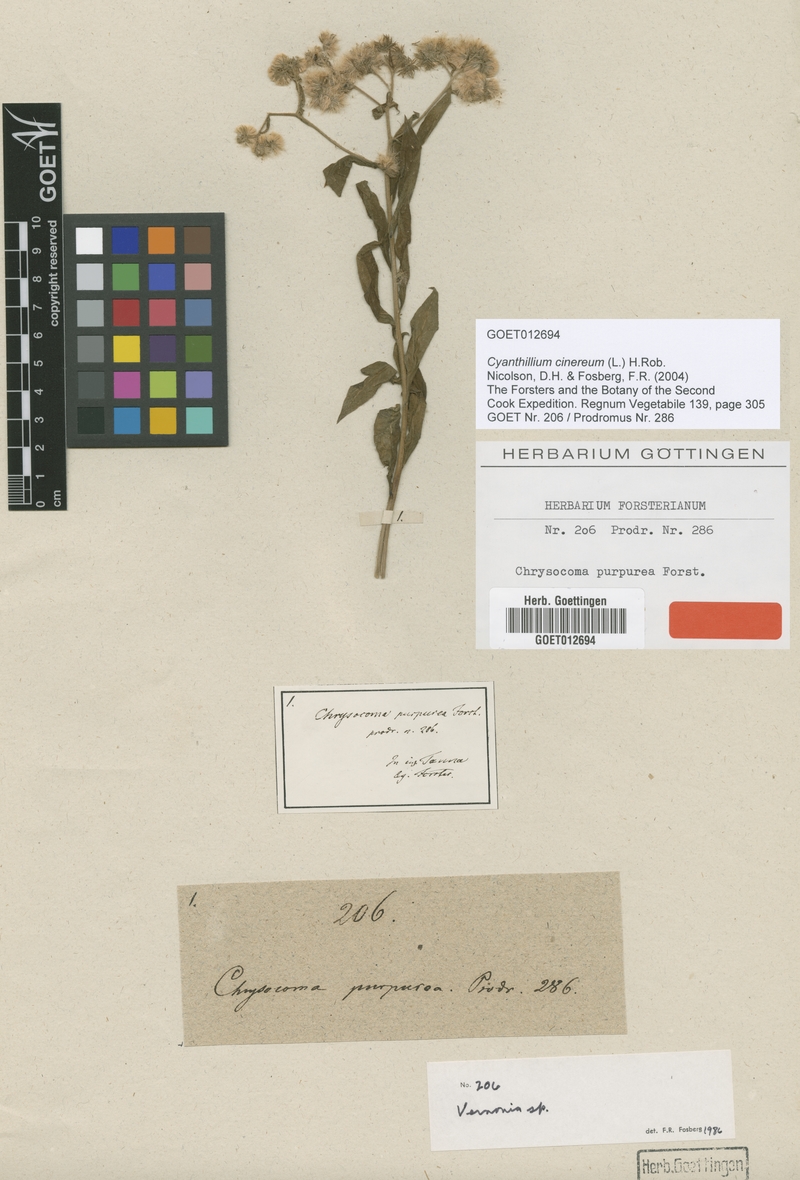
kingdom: Plantae
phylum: Tracheophyta
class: Magnoliopsida
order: Asterales
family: Asteraceae
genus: Cyanthillium
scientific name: Cyanthillium cinereum
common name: Little ironweed
